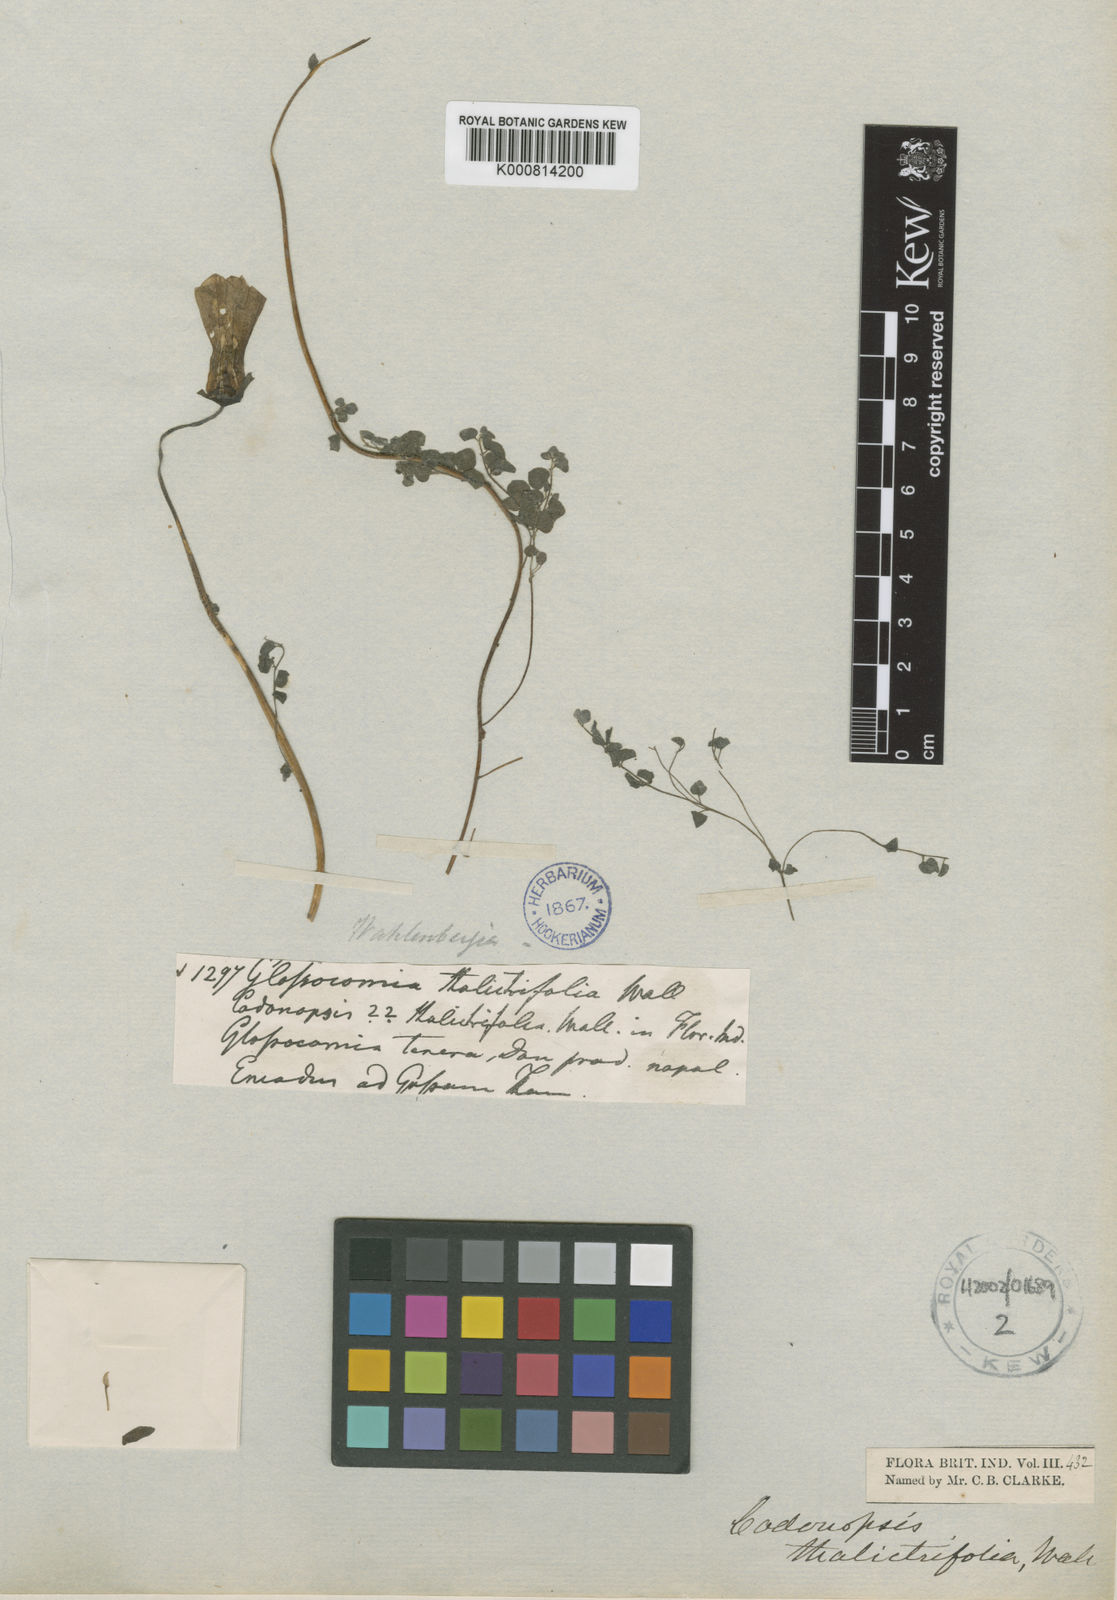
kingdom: Plantae
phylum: Tracheophyta
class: Magnoliopsida
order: Asterales
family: Campanulaceae
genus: Codonopsis
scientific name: Codonopsis thalictrifolia
